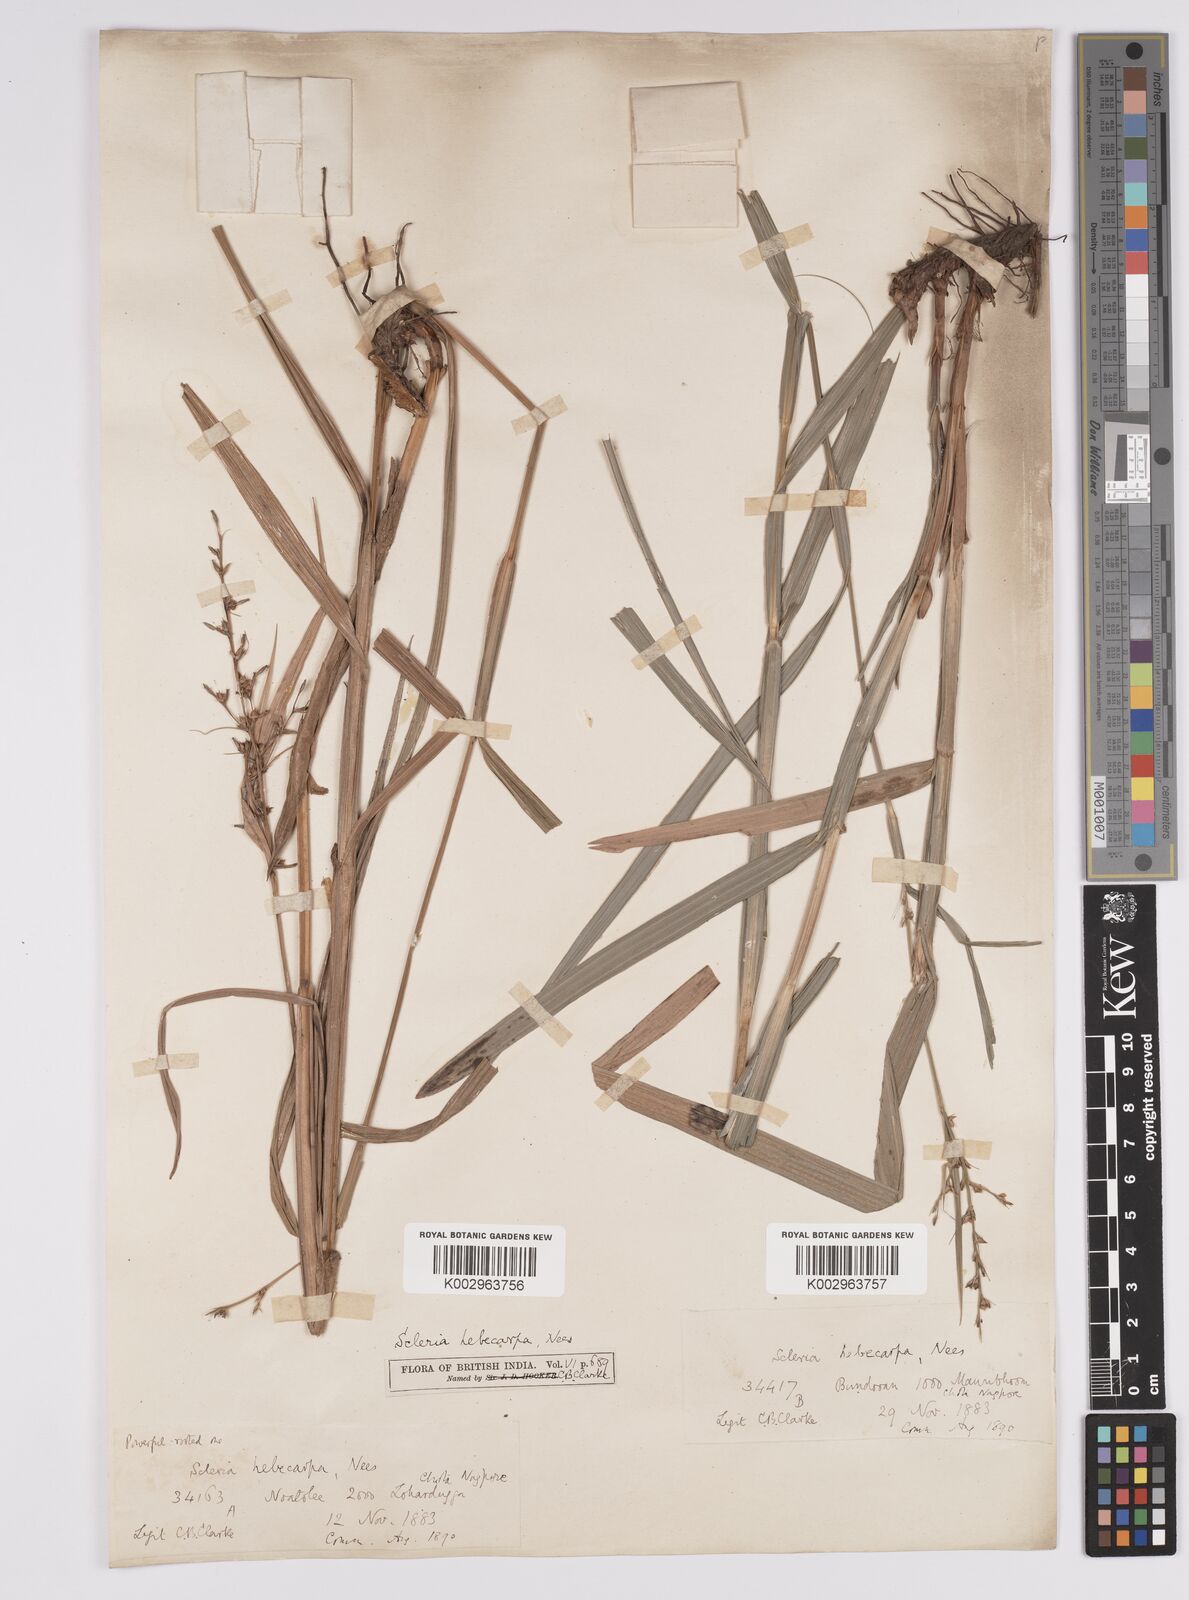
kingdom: Plantae
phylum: Tracheophyta
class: Liliopsida
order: Poales
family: Cyperaceae
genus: Scleria
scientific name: Scleria levis
